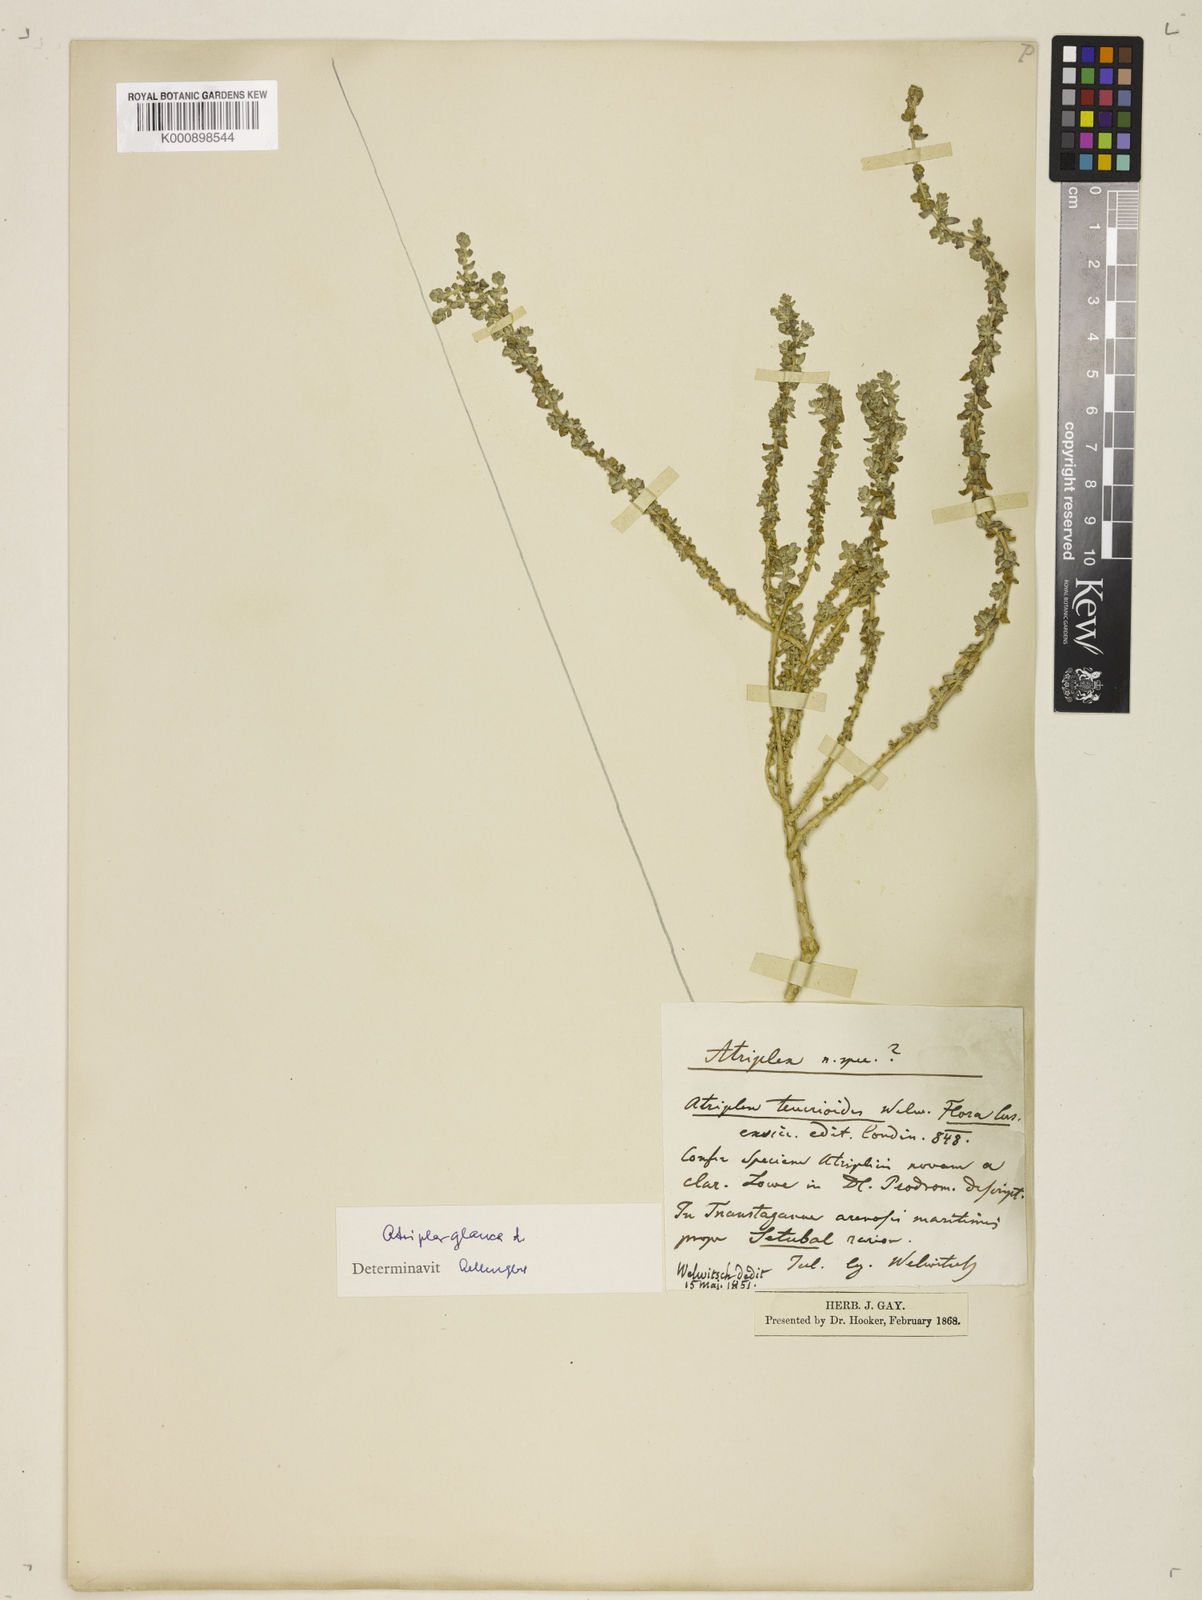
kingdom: Plantae
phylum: Tracheophyta
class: Magnoliopsida
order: Caryophyllales
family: Amaranthaceae
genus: Atriplex
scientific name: Atriplex
